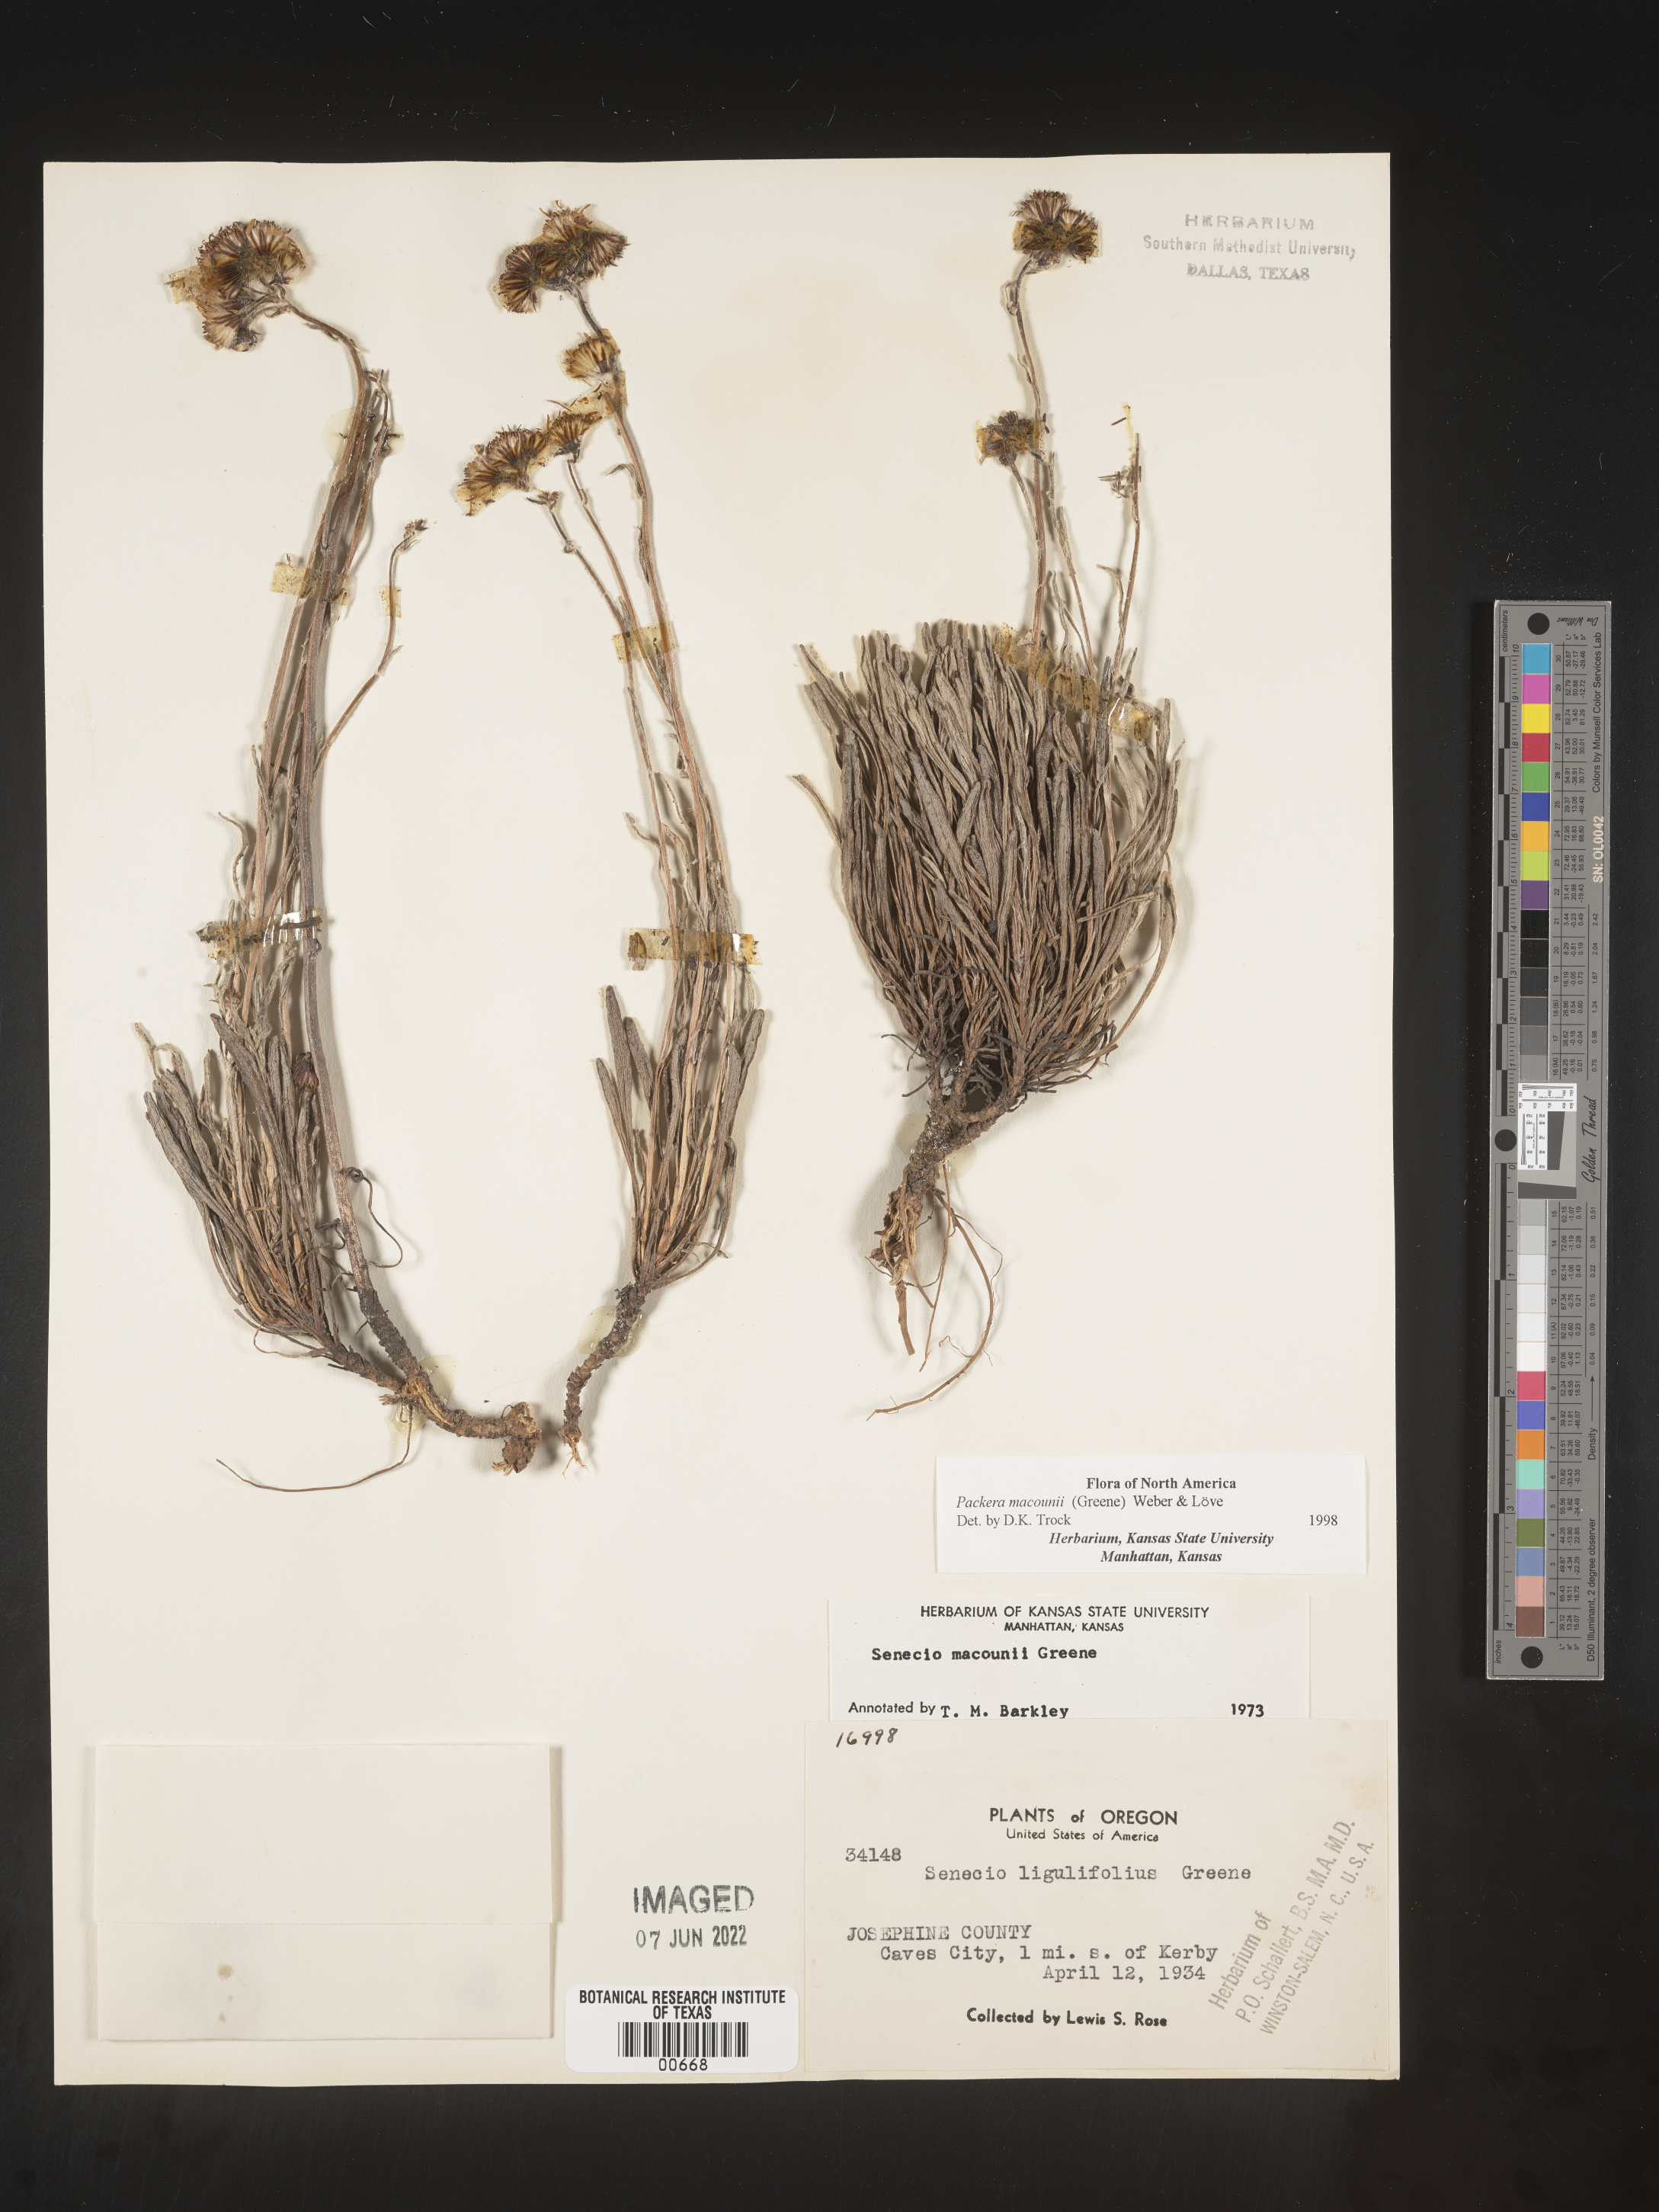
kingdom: Plantae
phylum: Tracheophyta
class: Magnoliopsida
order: Asterales
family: Asteraceae
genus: Packera
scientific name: Packera macounii
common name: Macoun's groundsel
